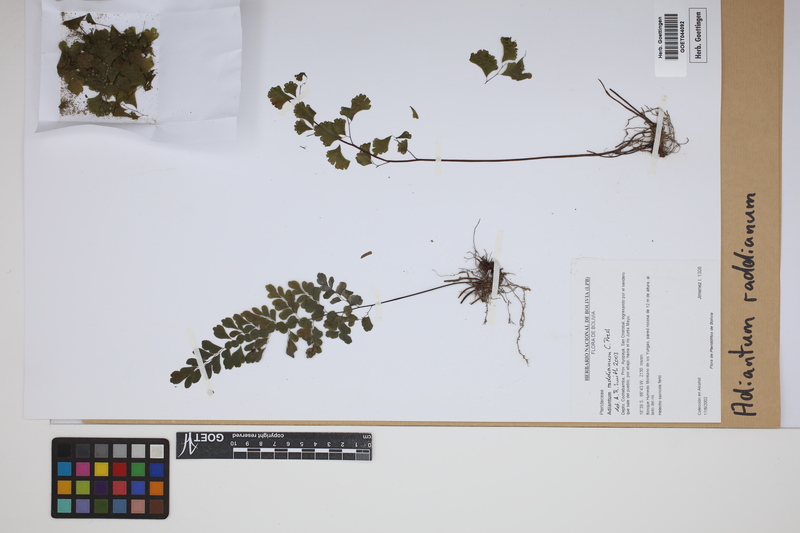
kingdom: Plantae
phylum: Tracheophyta
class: Polypodiopsida
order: Polypodiales
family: Pteridaceae
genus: Adiantum
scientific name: Adiantum raddianum
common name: Delta maidenhair fern
